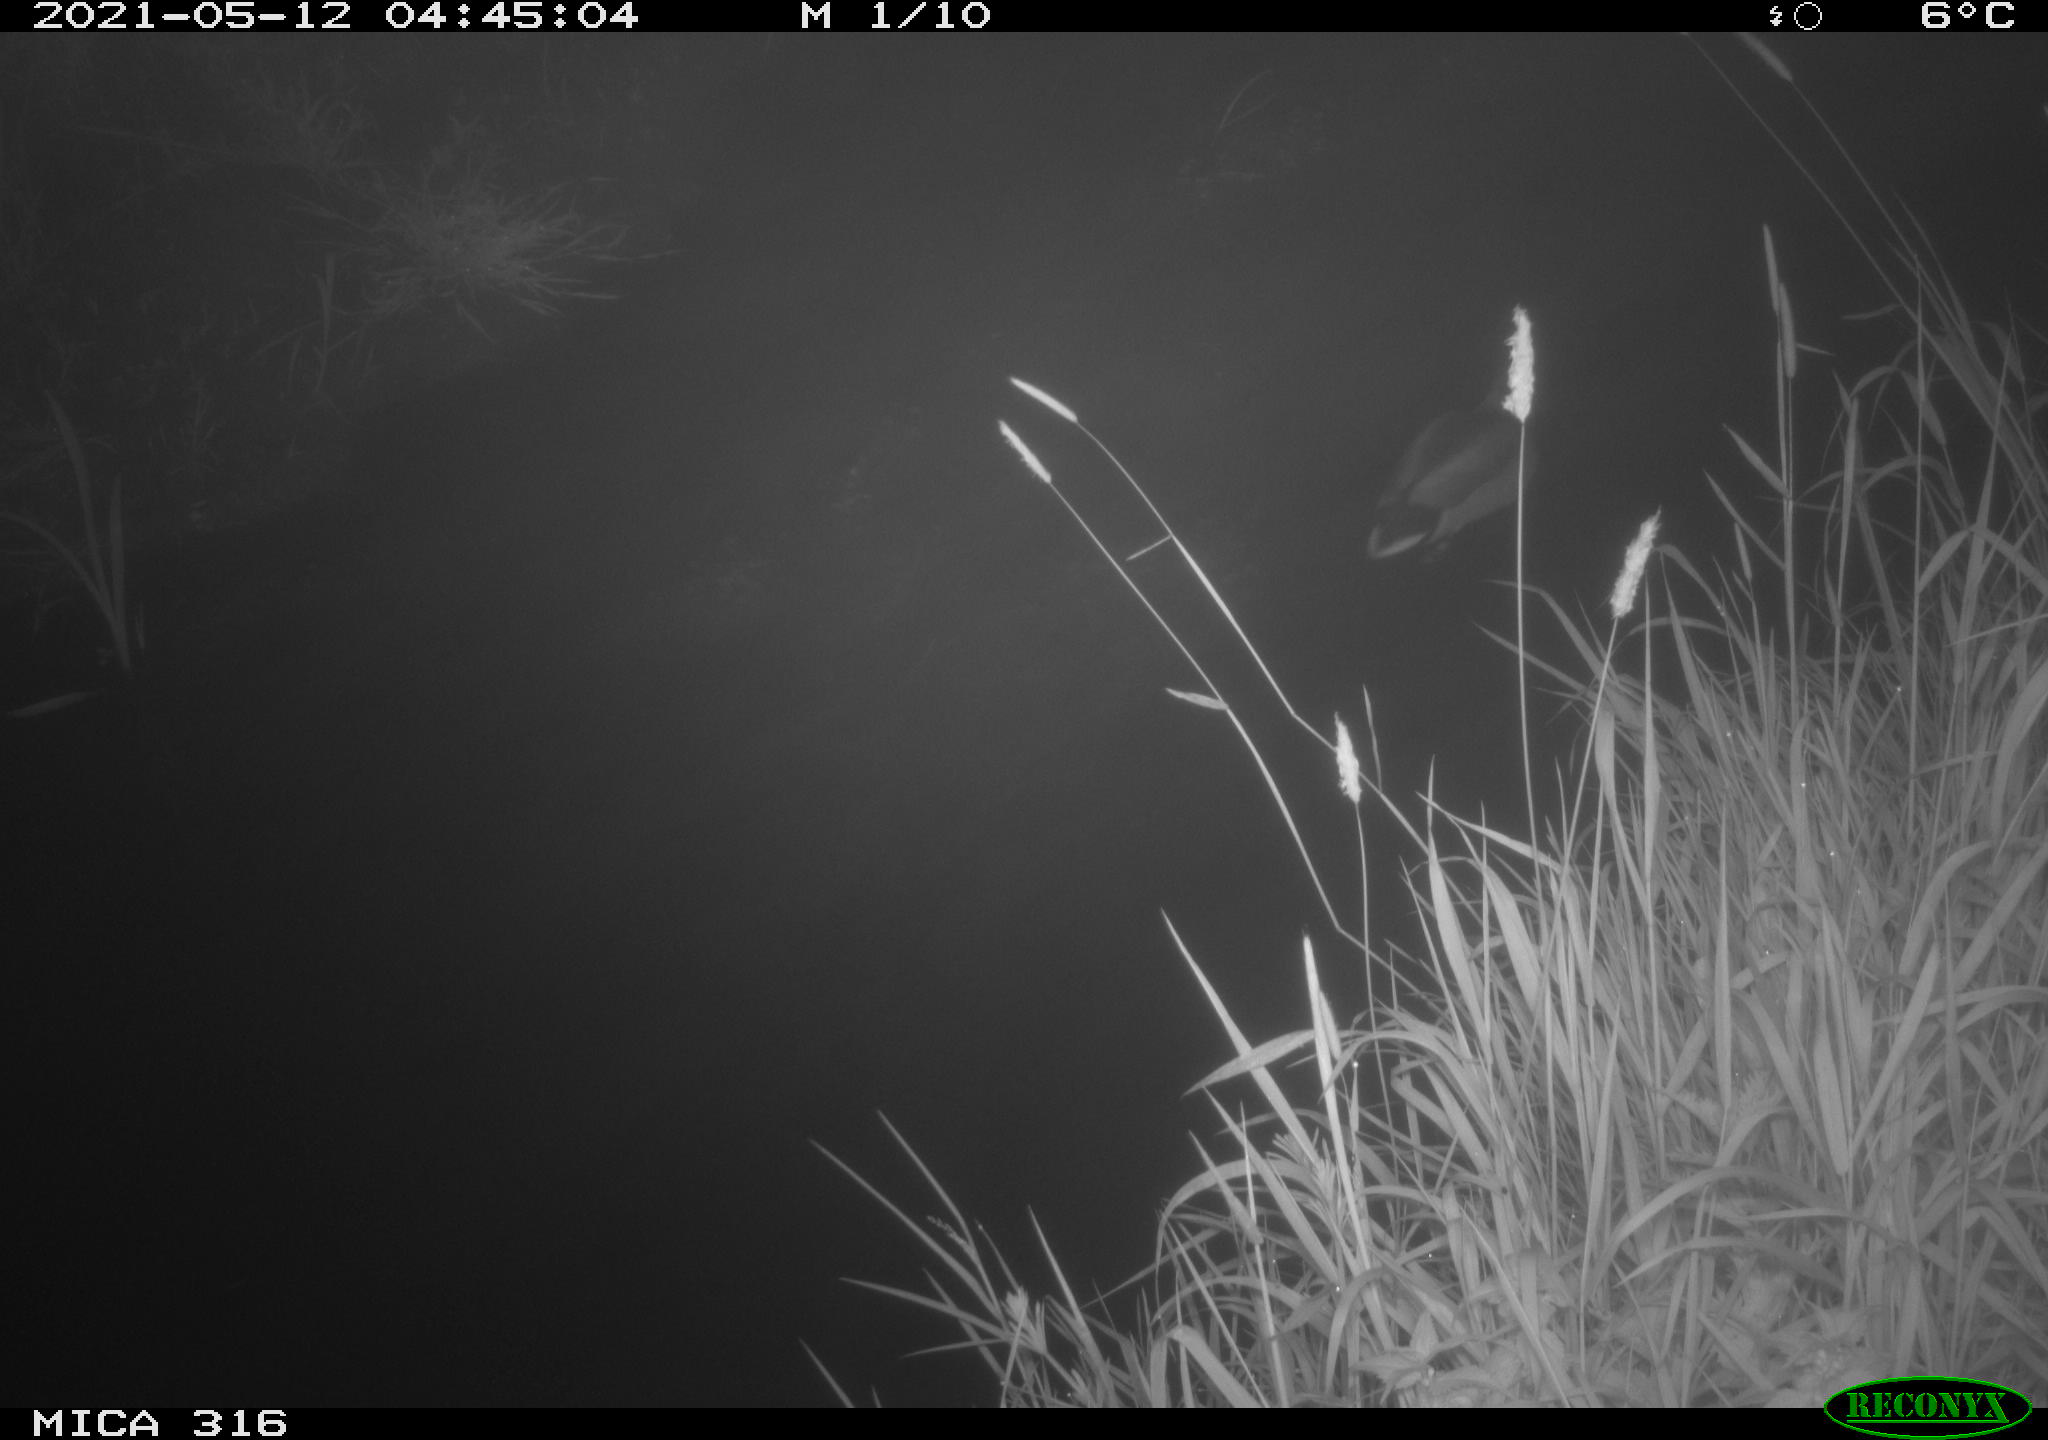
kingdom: Animalia
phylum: Chordata
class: Aves
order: Anseriformes
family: Anatidae
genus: Anas
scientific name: Anas platyrhynchos
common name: Mallard
